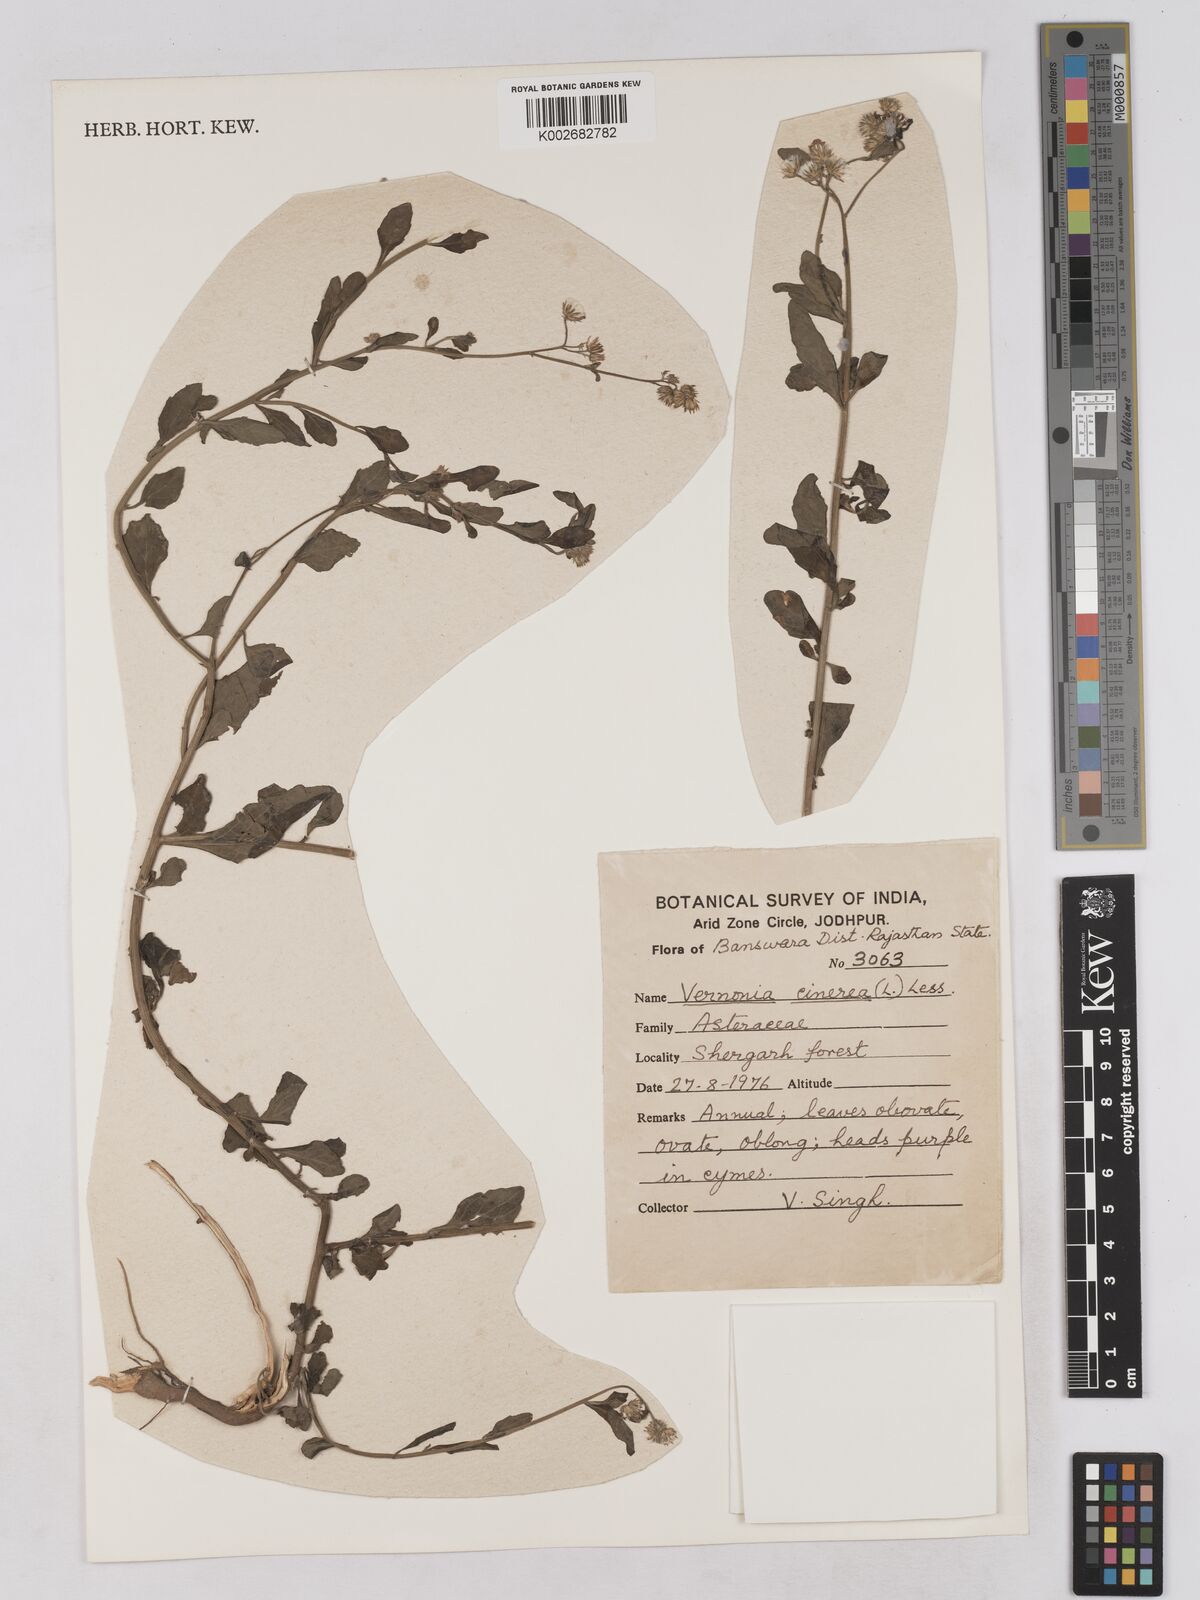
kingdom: Plantae
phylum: Tracheophyta
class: Magnoliopsida
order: Asterales
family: Asteraceae
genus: Cyanthillium
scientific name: Cyanthillium cinereum
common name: Little ironweed
